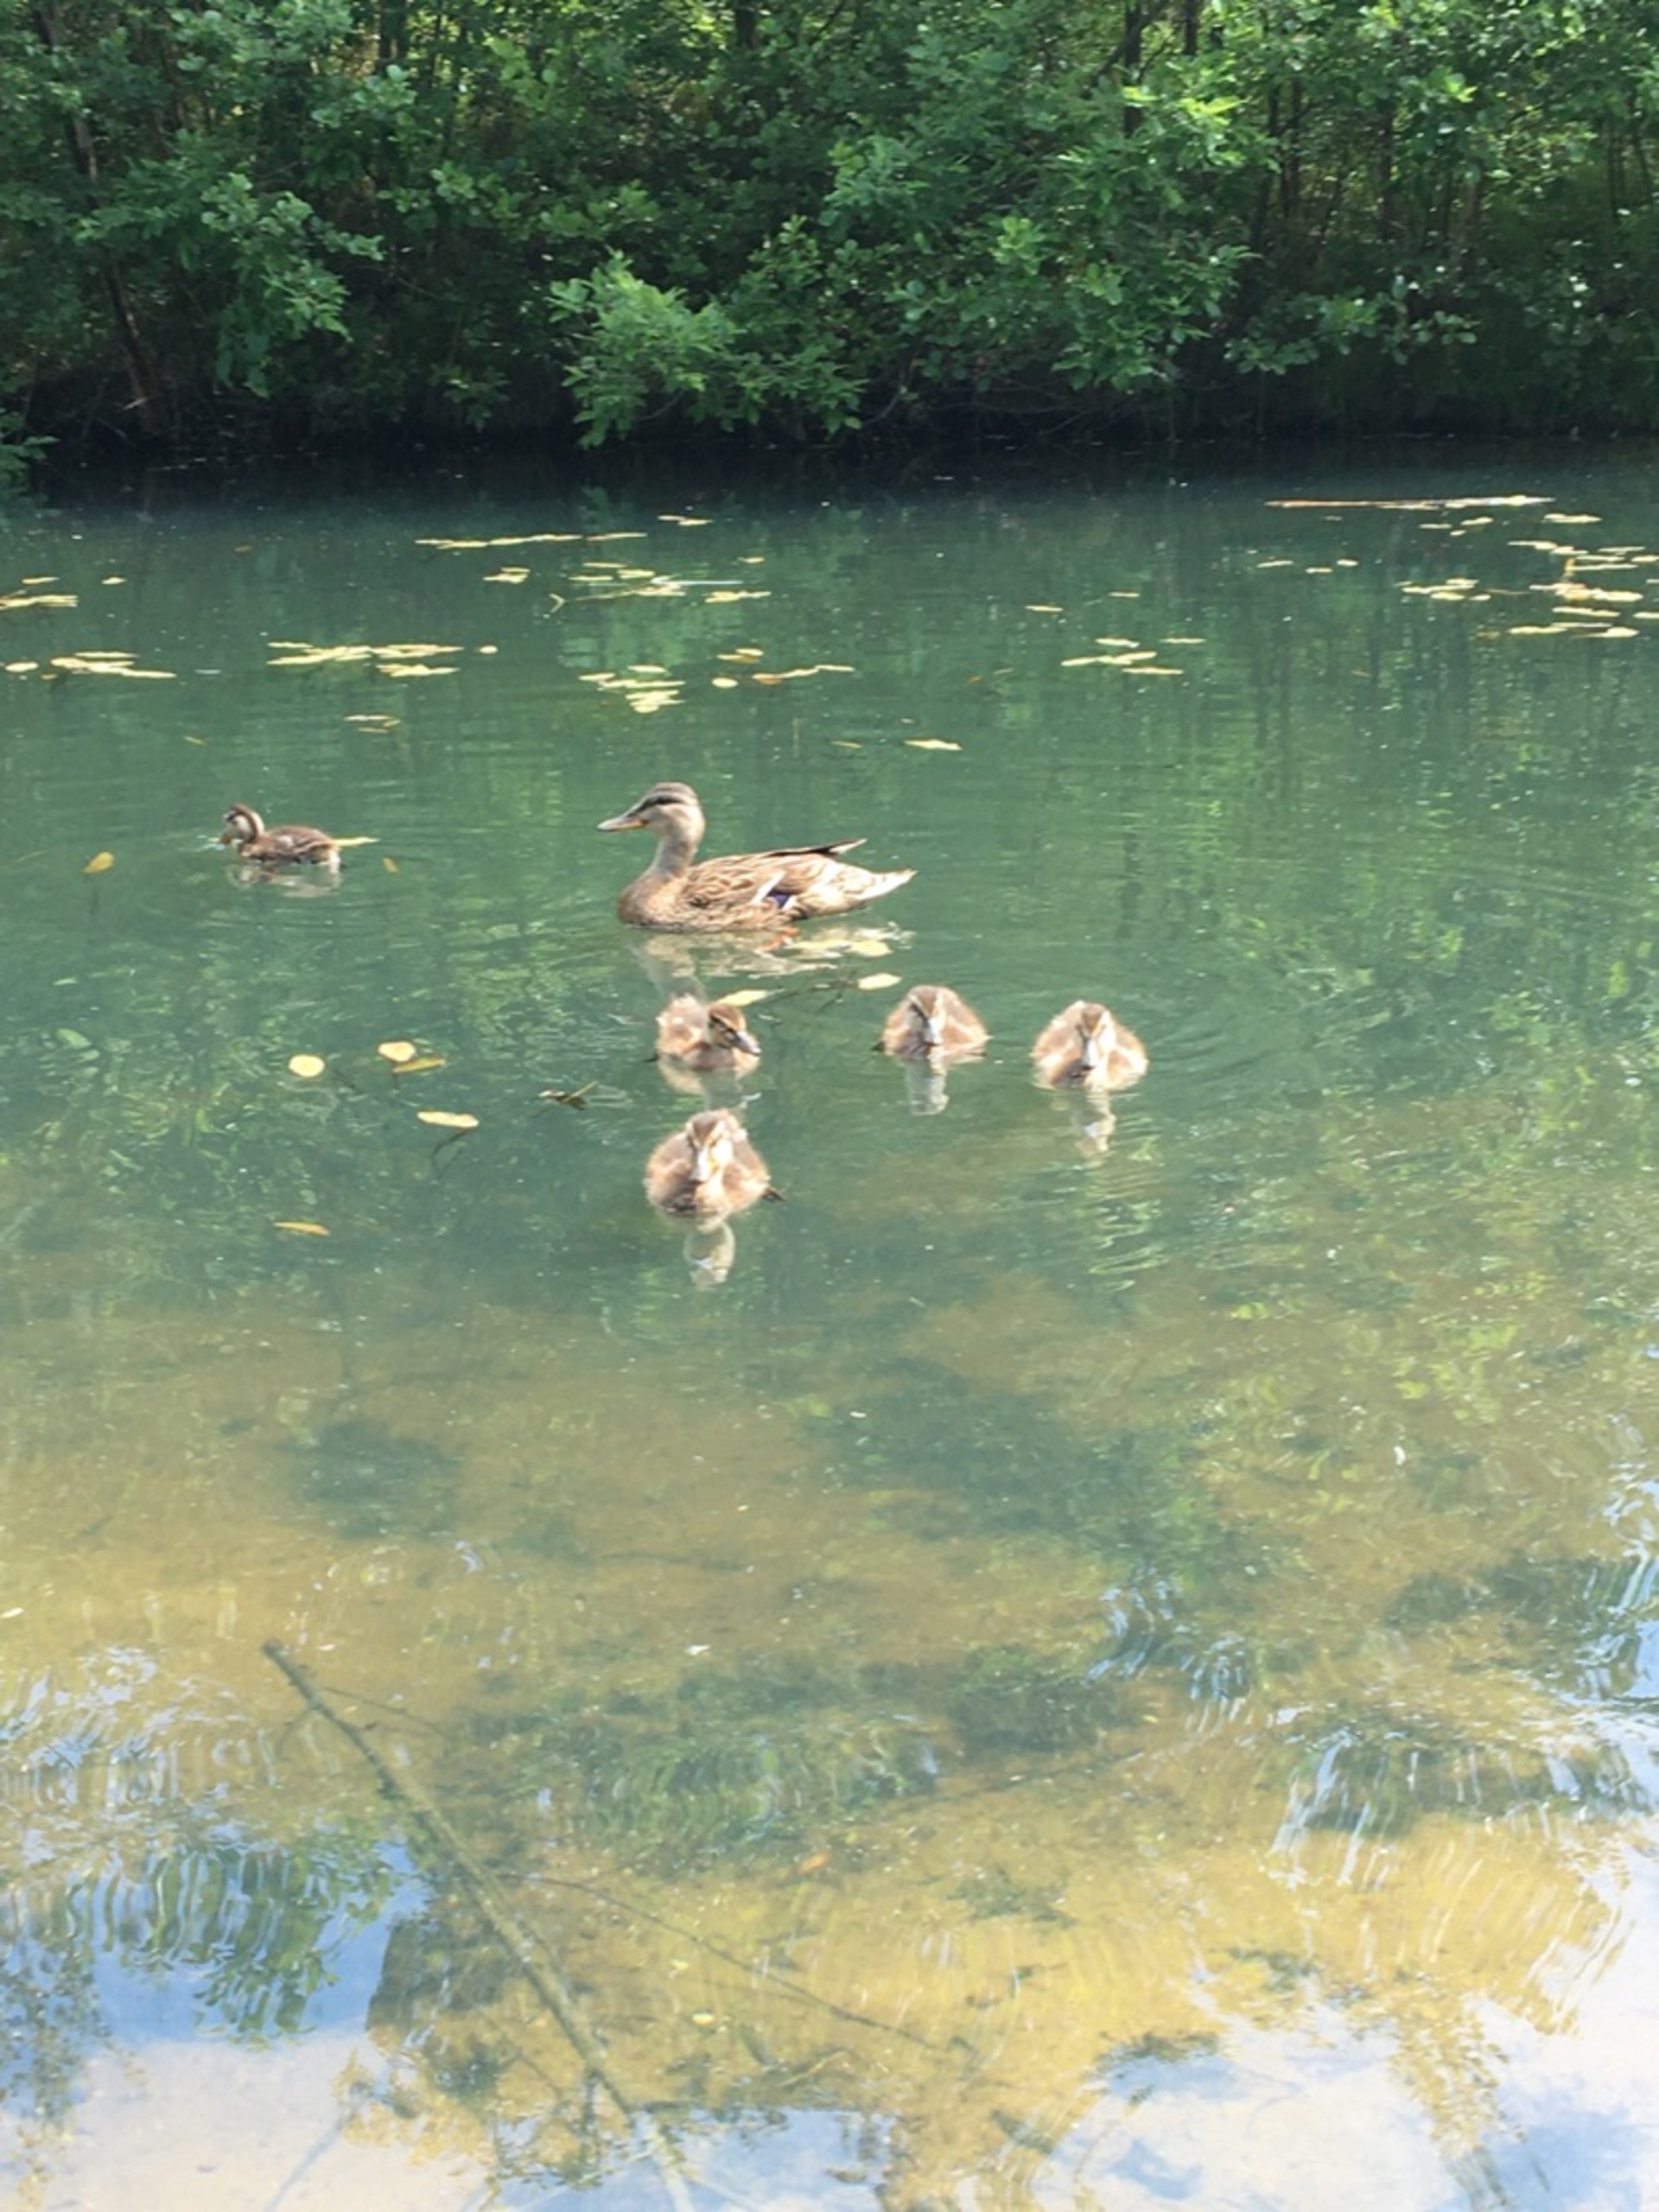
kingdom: Animalia
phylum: Chordata
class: Aves
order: Anseriformes
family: Anatidae
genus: Anas
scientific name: Anas platyrhynchos
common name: Gråand
